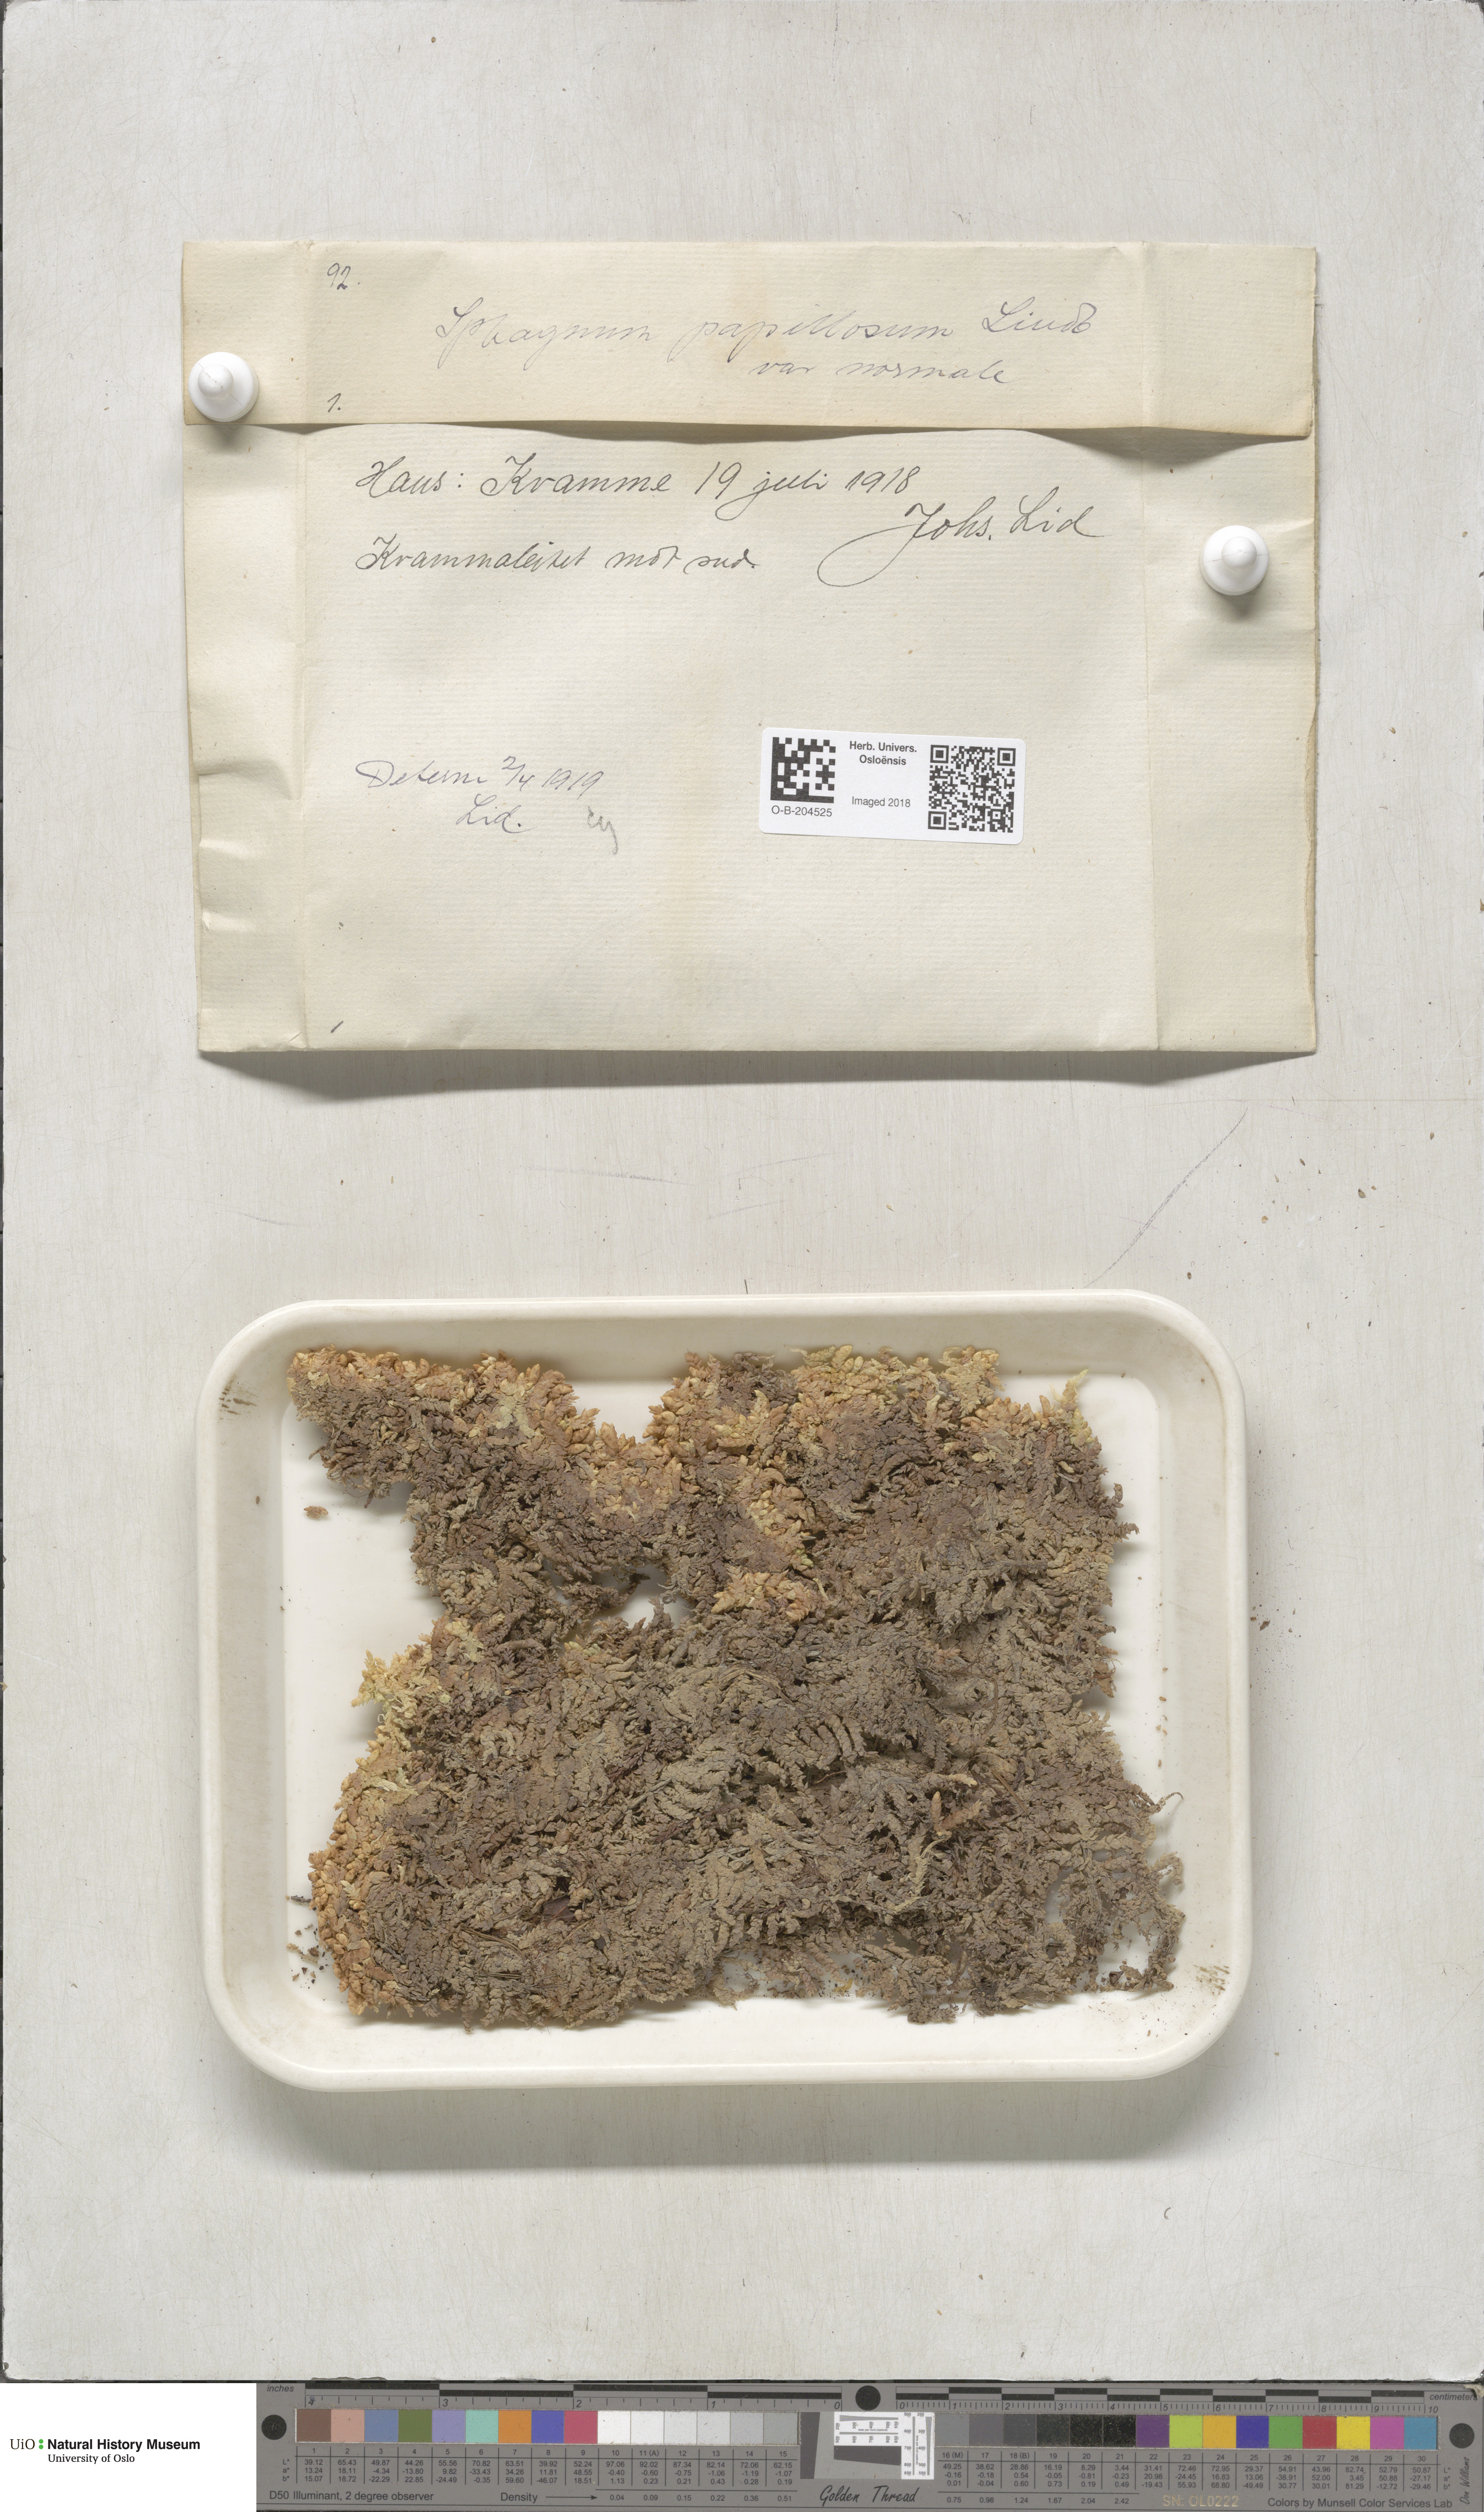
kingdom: Plantae
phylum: Bryophyta
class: Sphagnopsida
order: Sphagnales
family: Sphagnaceae
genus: Sphagnum
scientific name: Sphagnum papillosum
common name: Papillose peat moss
